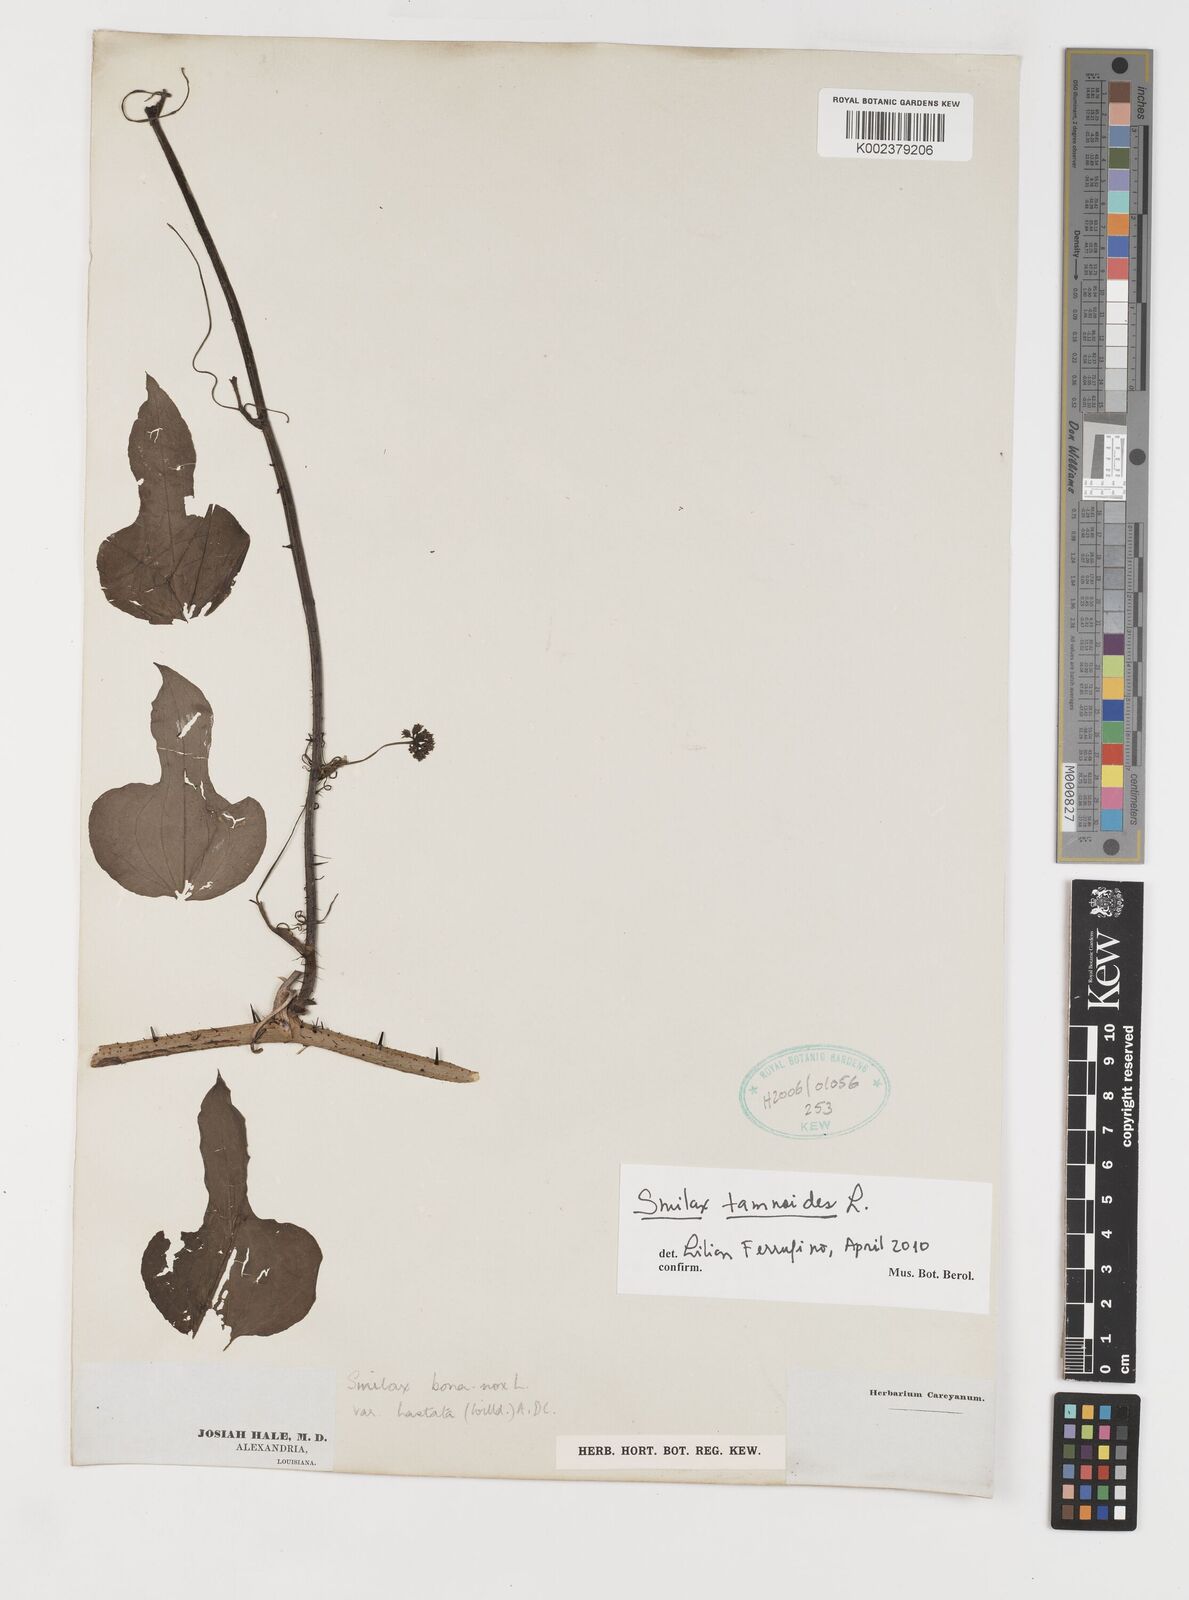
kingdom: Plantae
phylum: Tracheophyta
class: Liliopsida
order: Liliales
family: Smilacaceae
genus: Smilax
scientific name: Smilax pseudochina
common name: False chinaroot
